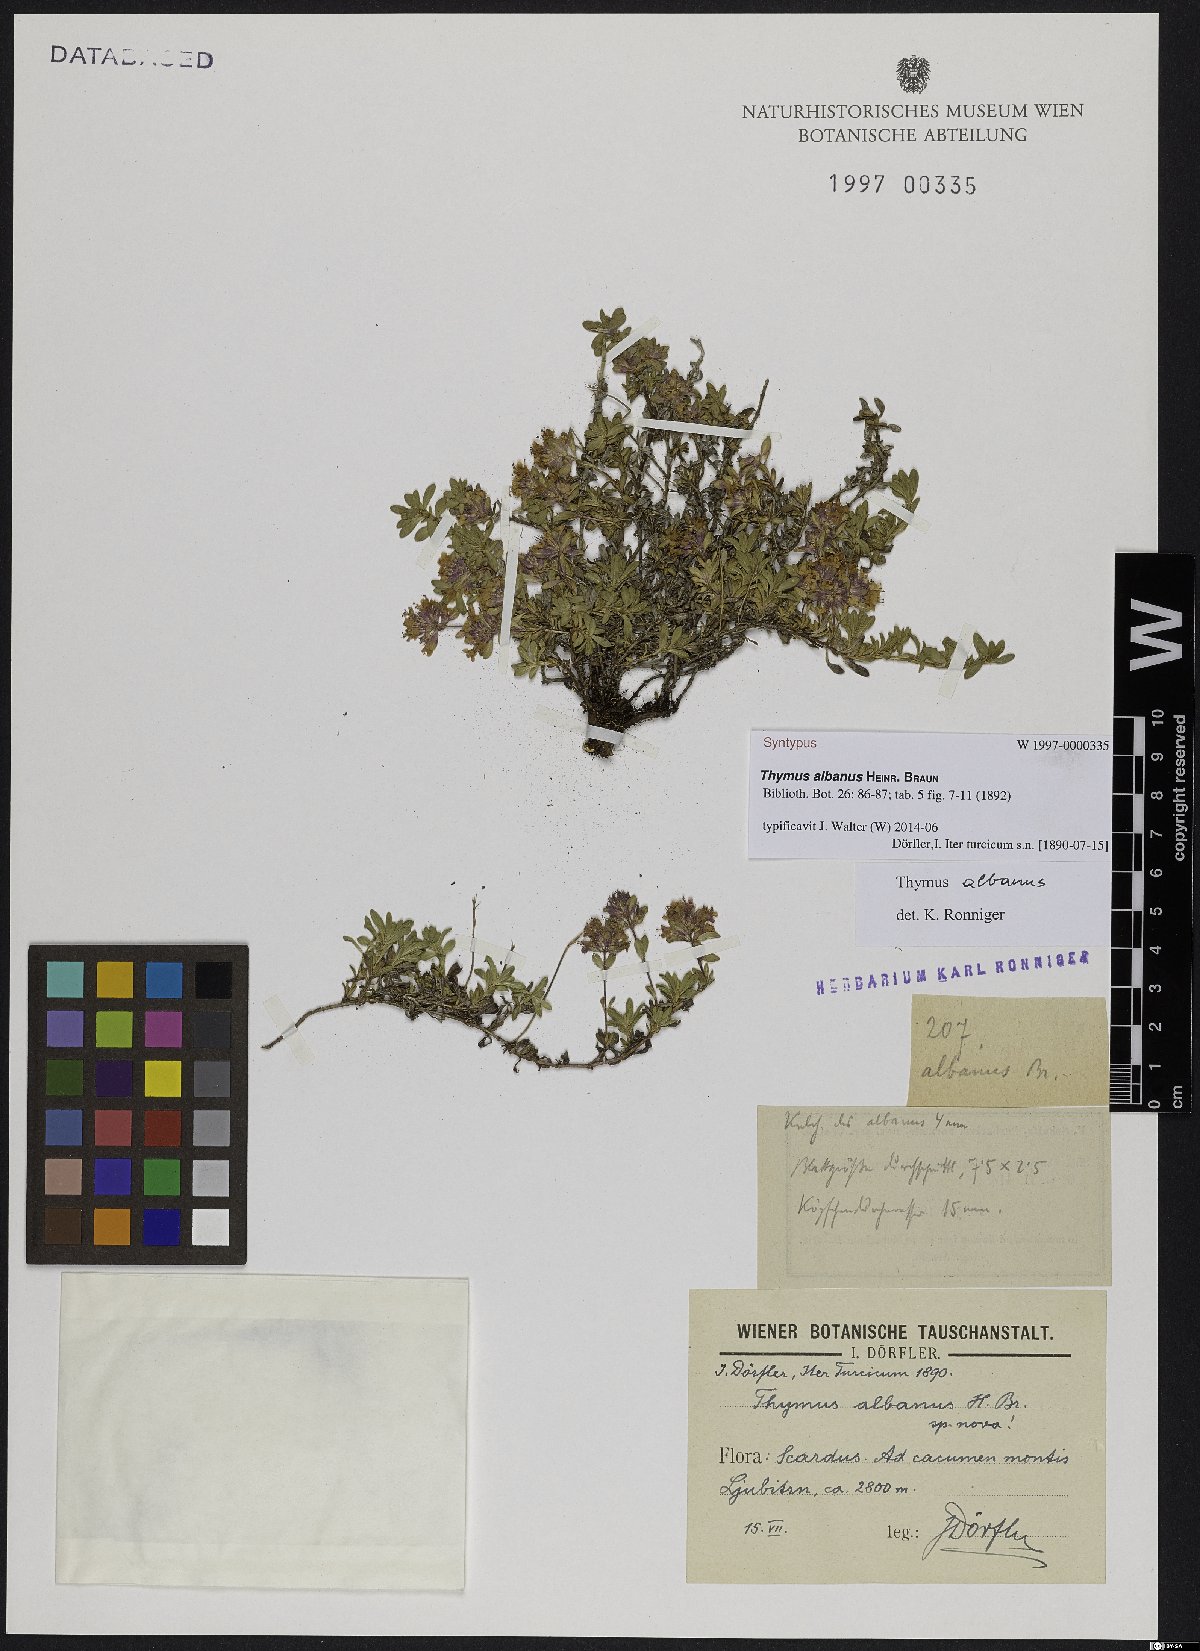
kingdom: Plantae
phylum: Tracheophyta
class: Magnoliopsida
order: Lamiales
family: Lamiaceae
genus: Thymus
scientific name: Thymus albanus
